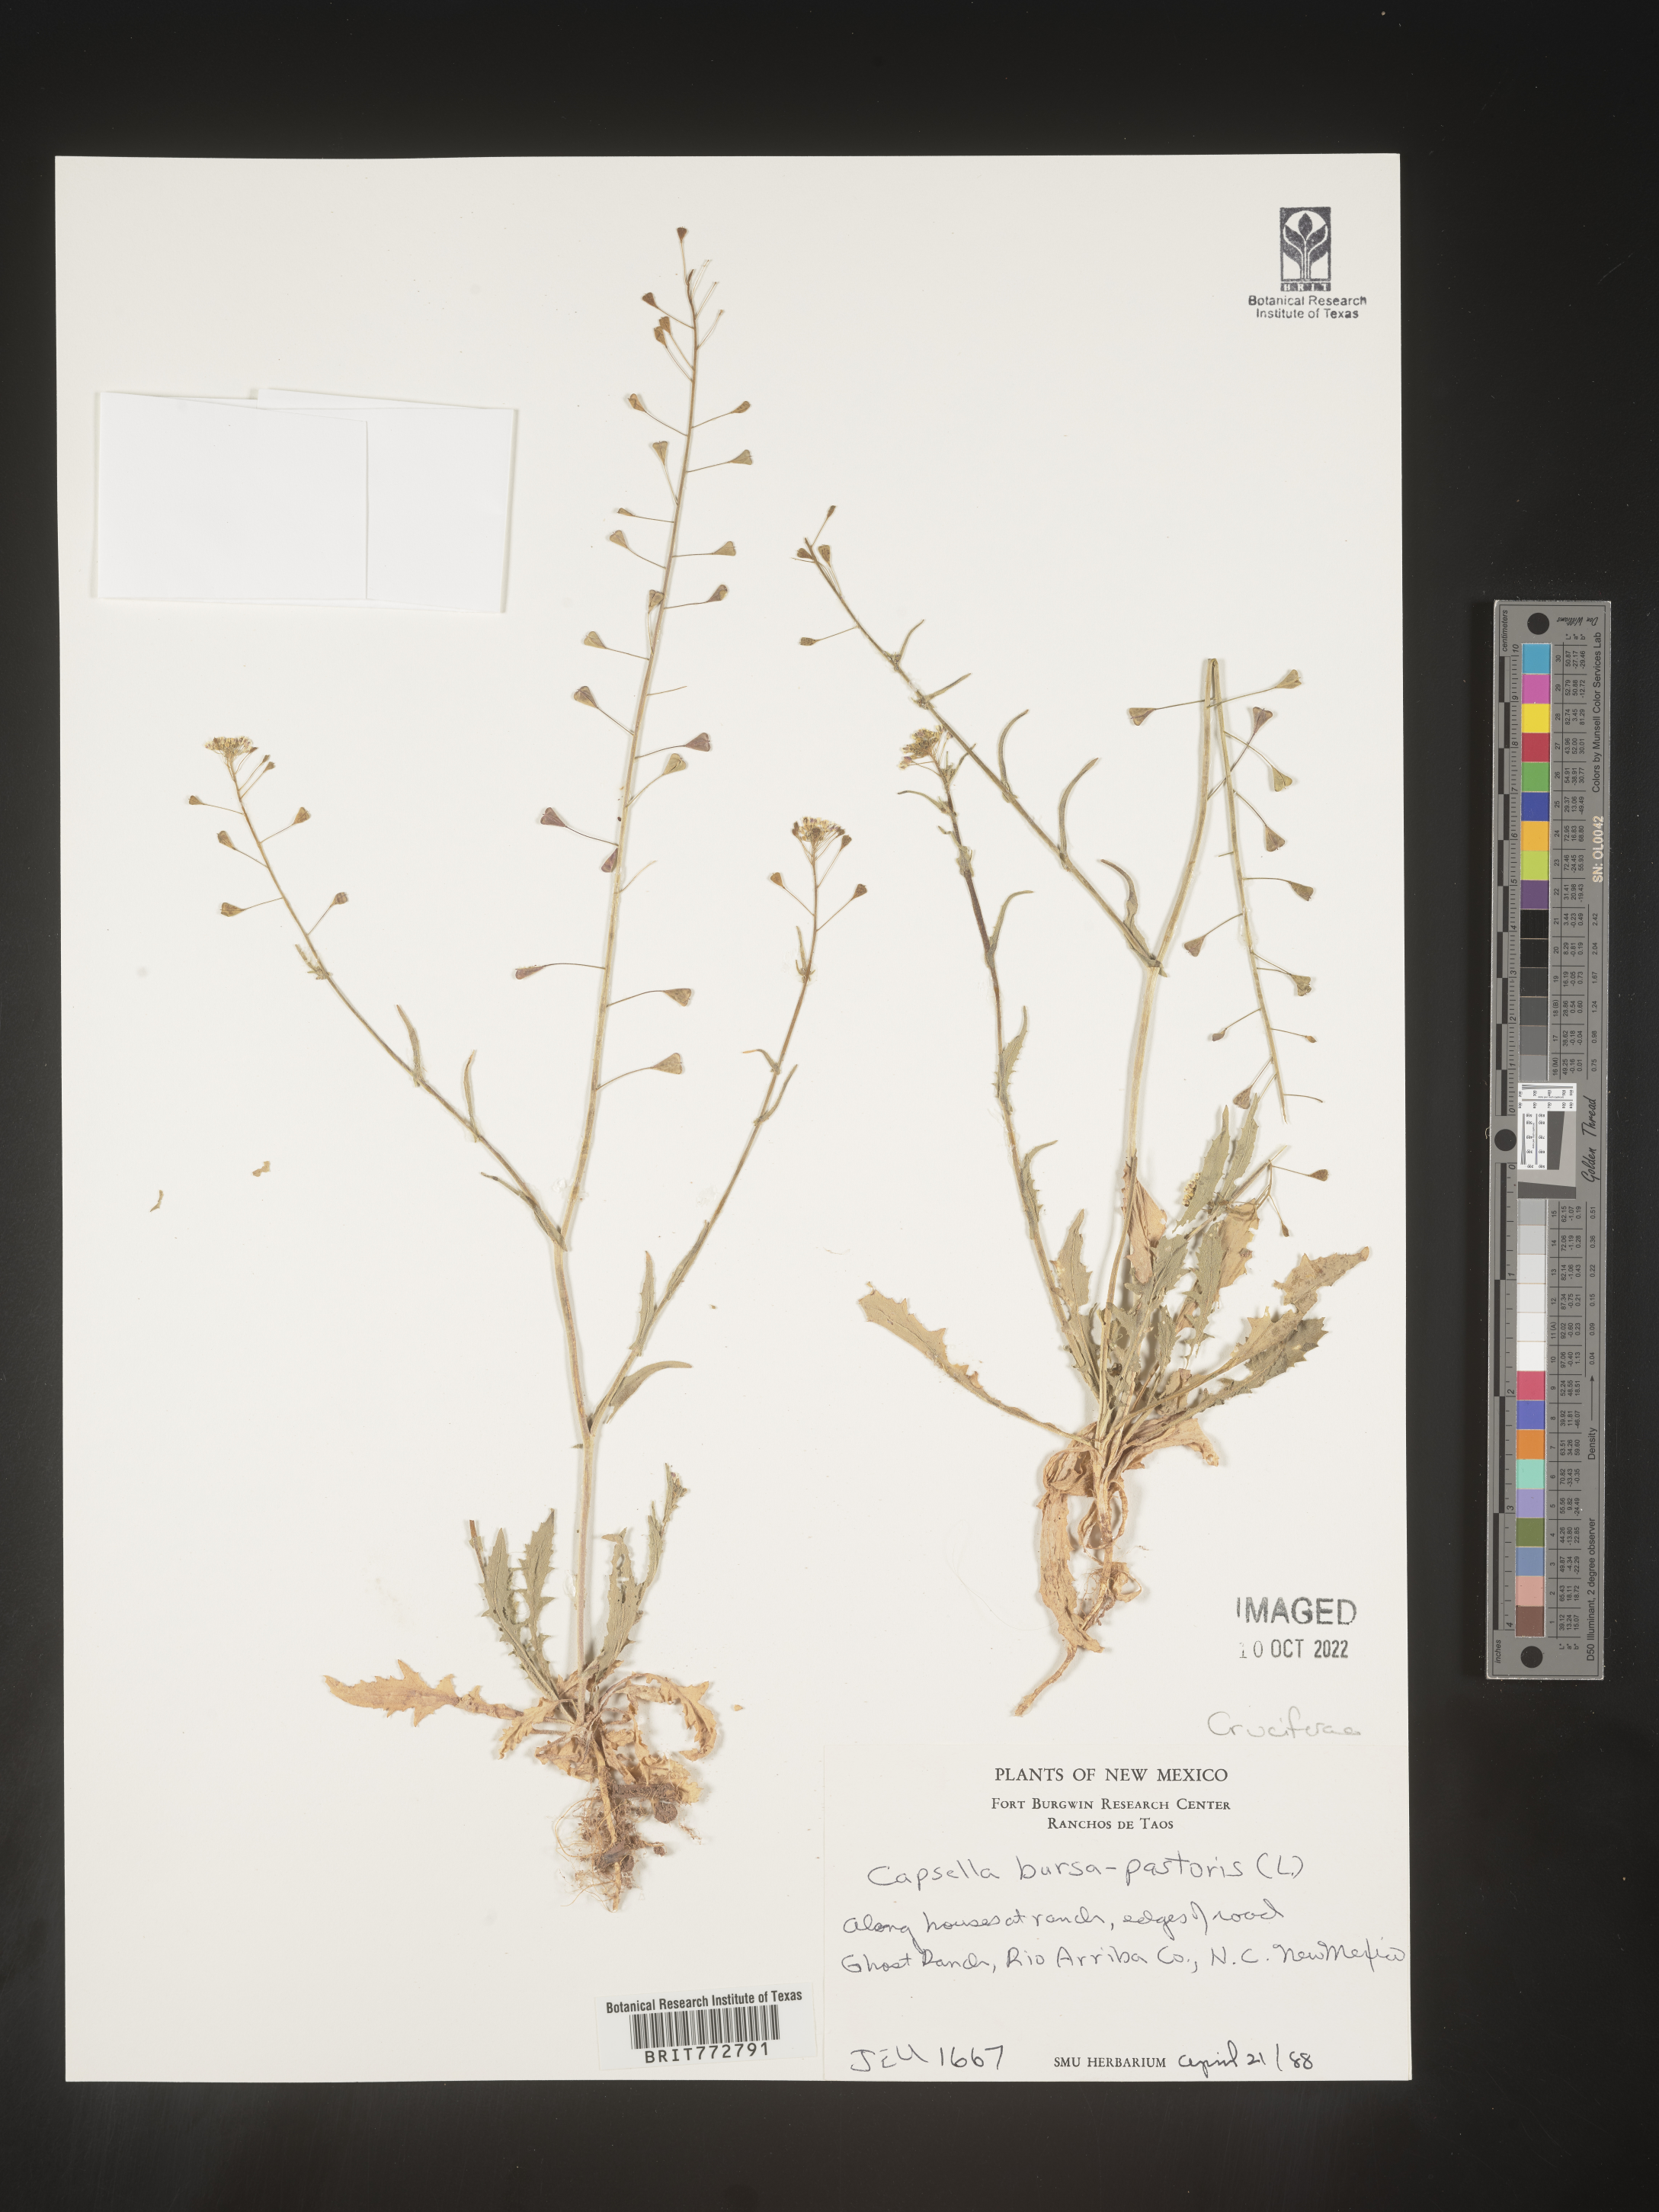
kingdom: Plantae
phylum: Tracheophyta
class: Magnoliopsida
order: Brassicales
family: Brassicaceae
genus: Capsella
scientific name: Capsella bursa-pastoris
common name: Shepherd's purse
